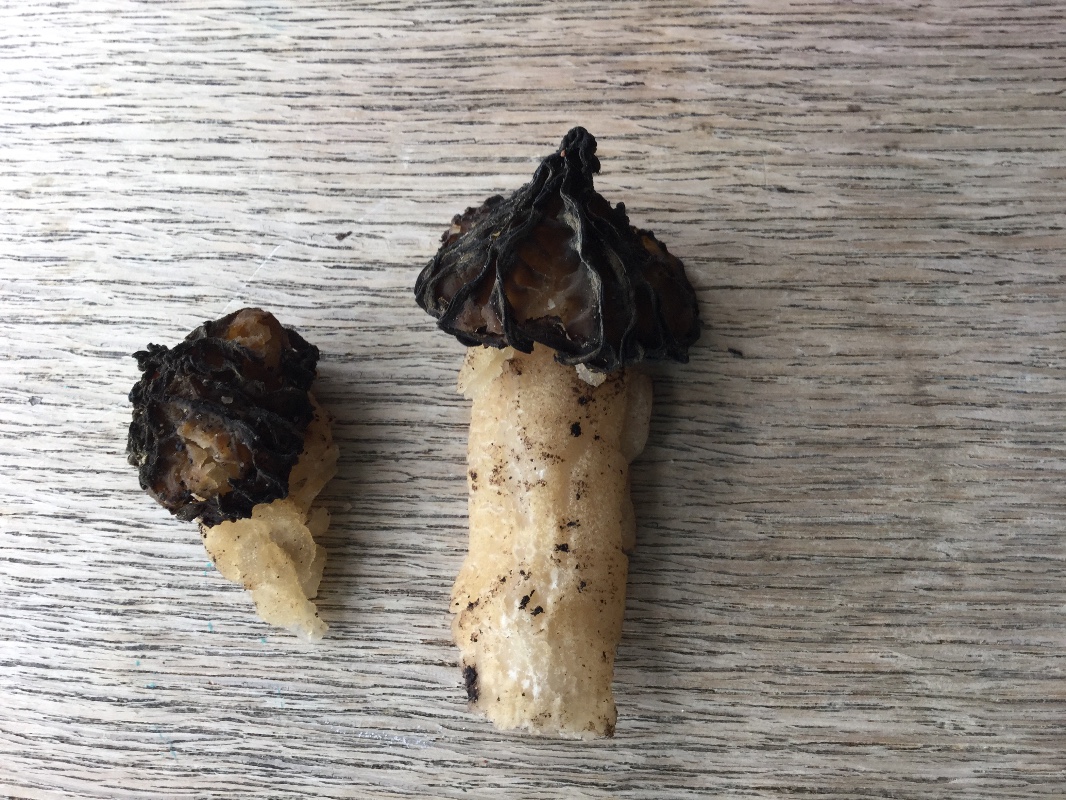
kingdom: Fungi
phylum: Ascomycota
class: Pezizomycetes
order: Pezizales
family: Morchellaceae
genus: Morchella
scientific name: Morchella semilibera
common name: hætte-morkel
